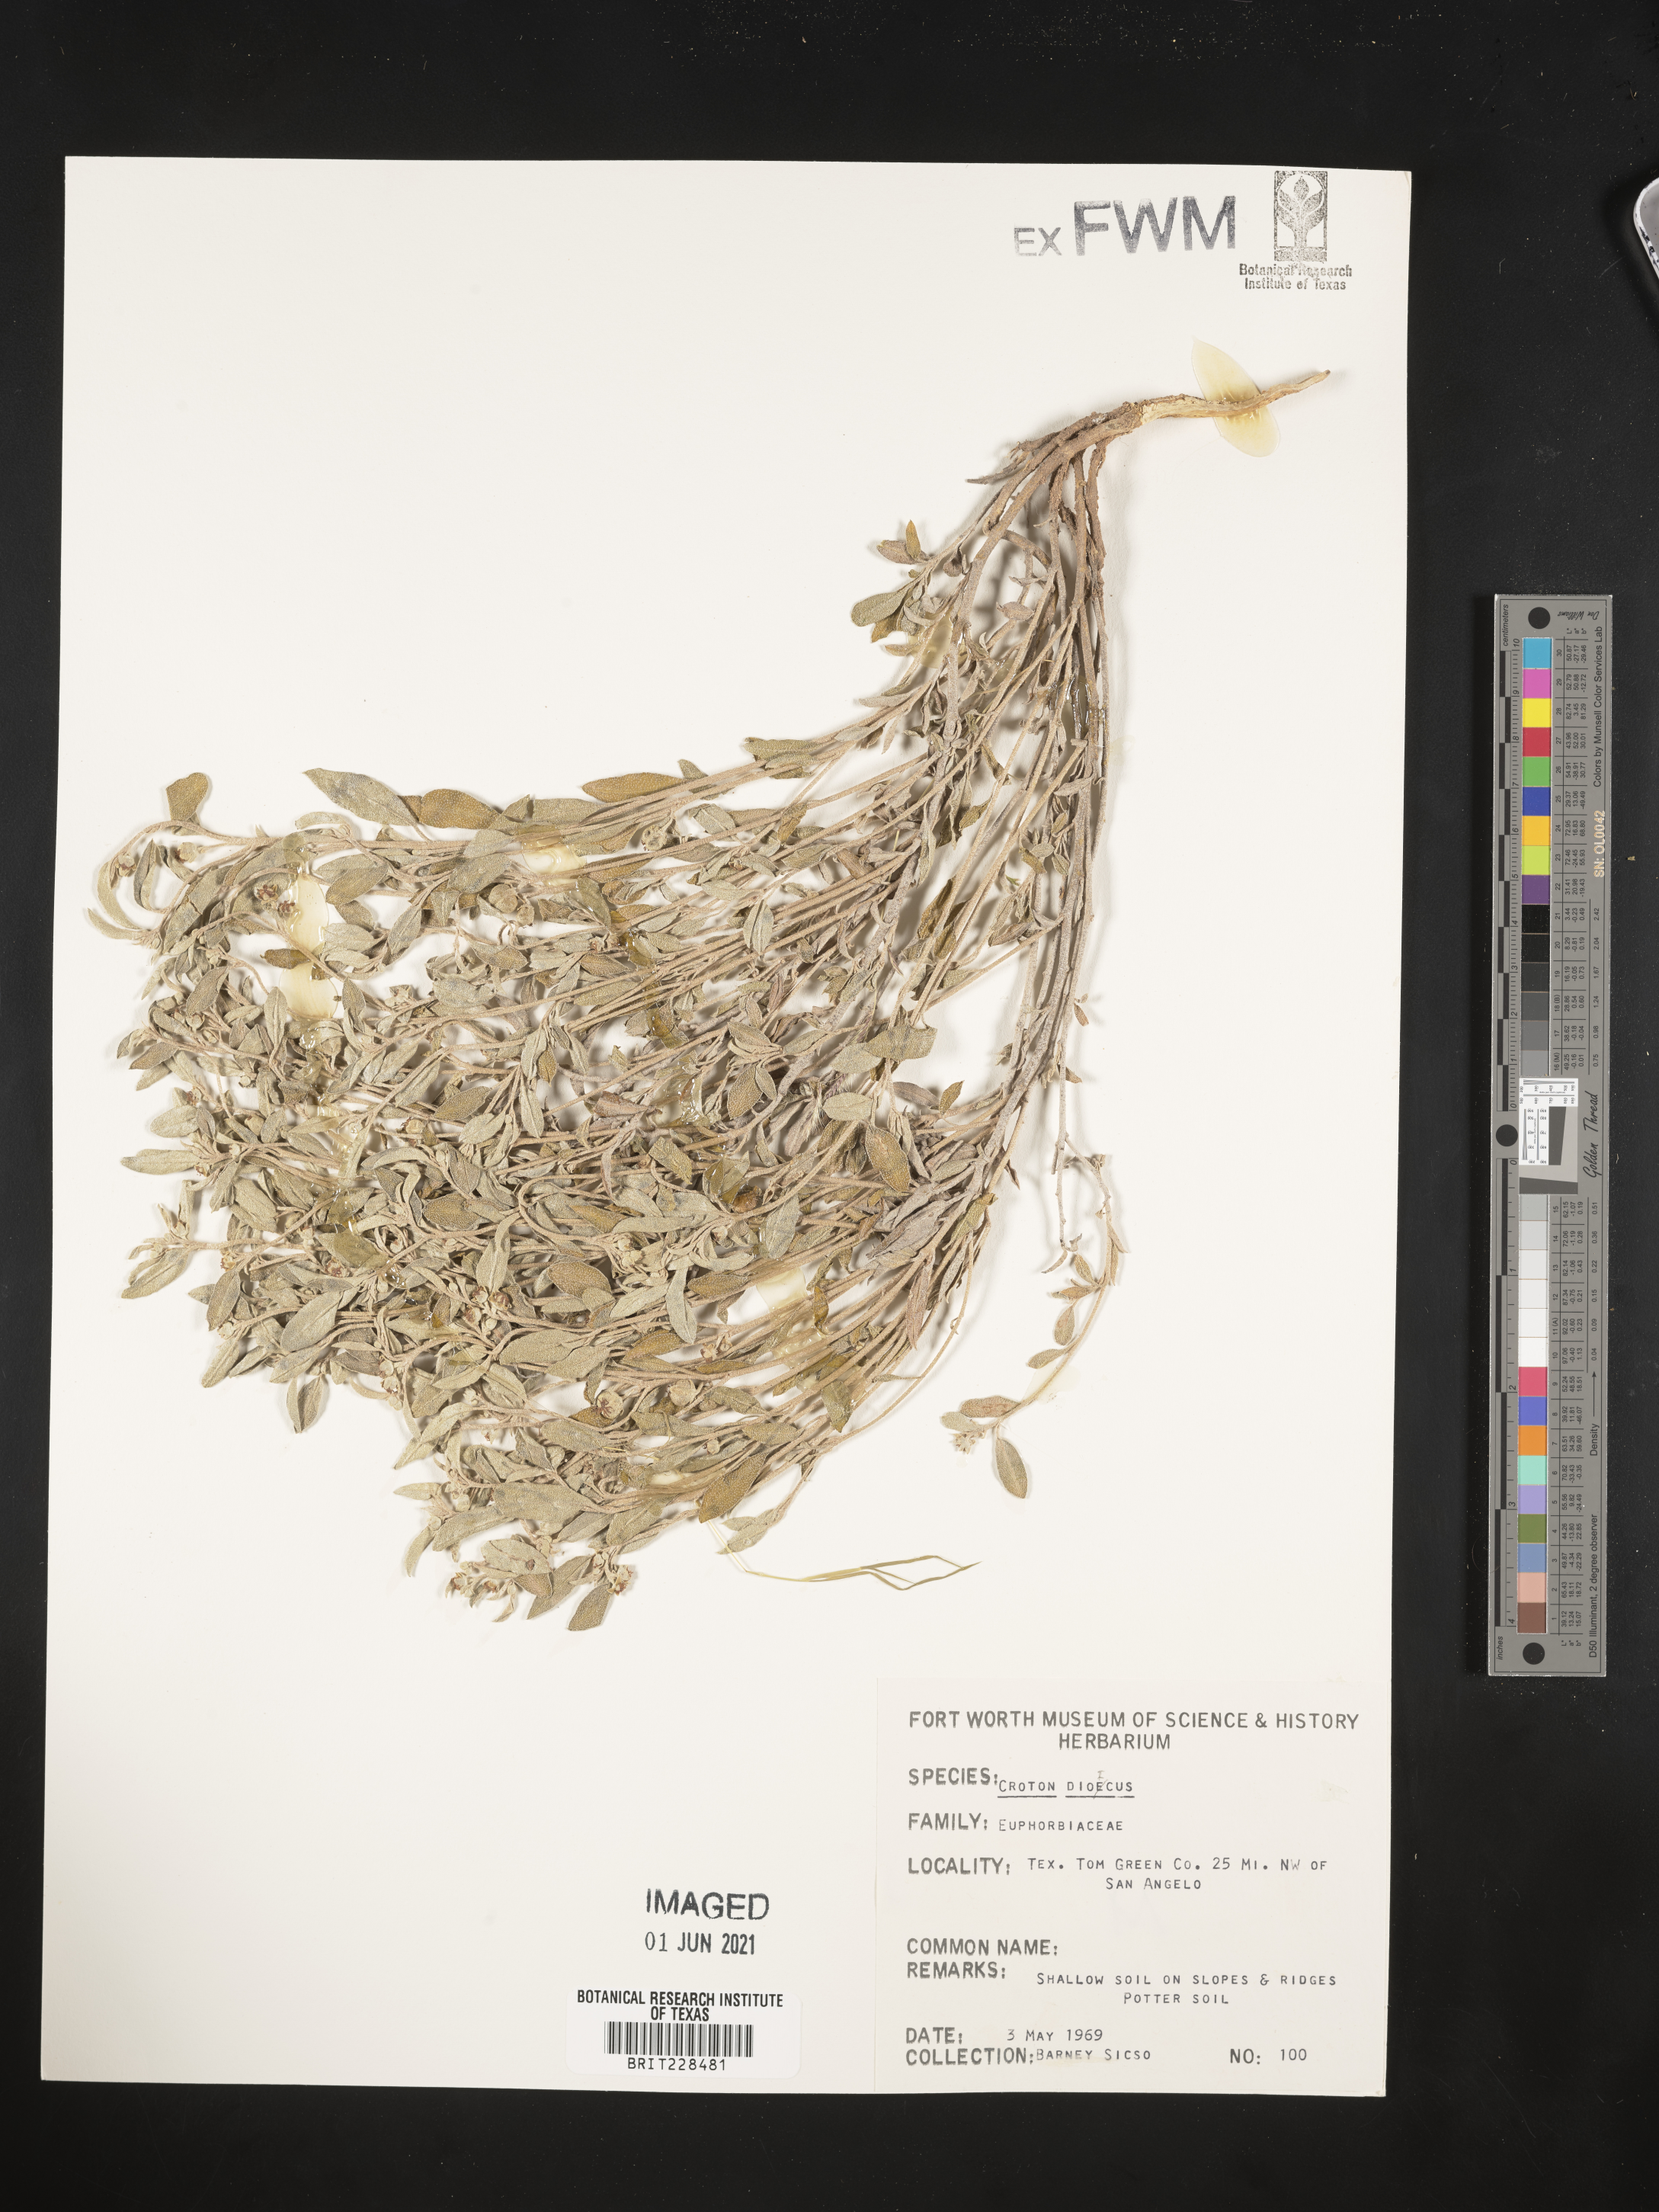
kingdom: Plantae
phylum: Tracheophyta
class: Magnoliopsida
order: Malpighiales
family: Euphorbiaceae
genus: Croton
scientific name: Croton dioicus
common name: Grassland croton
